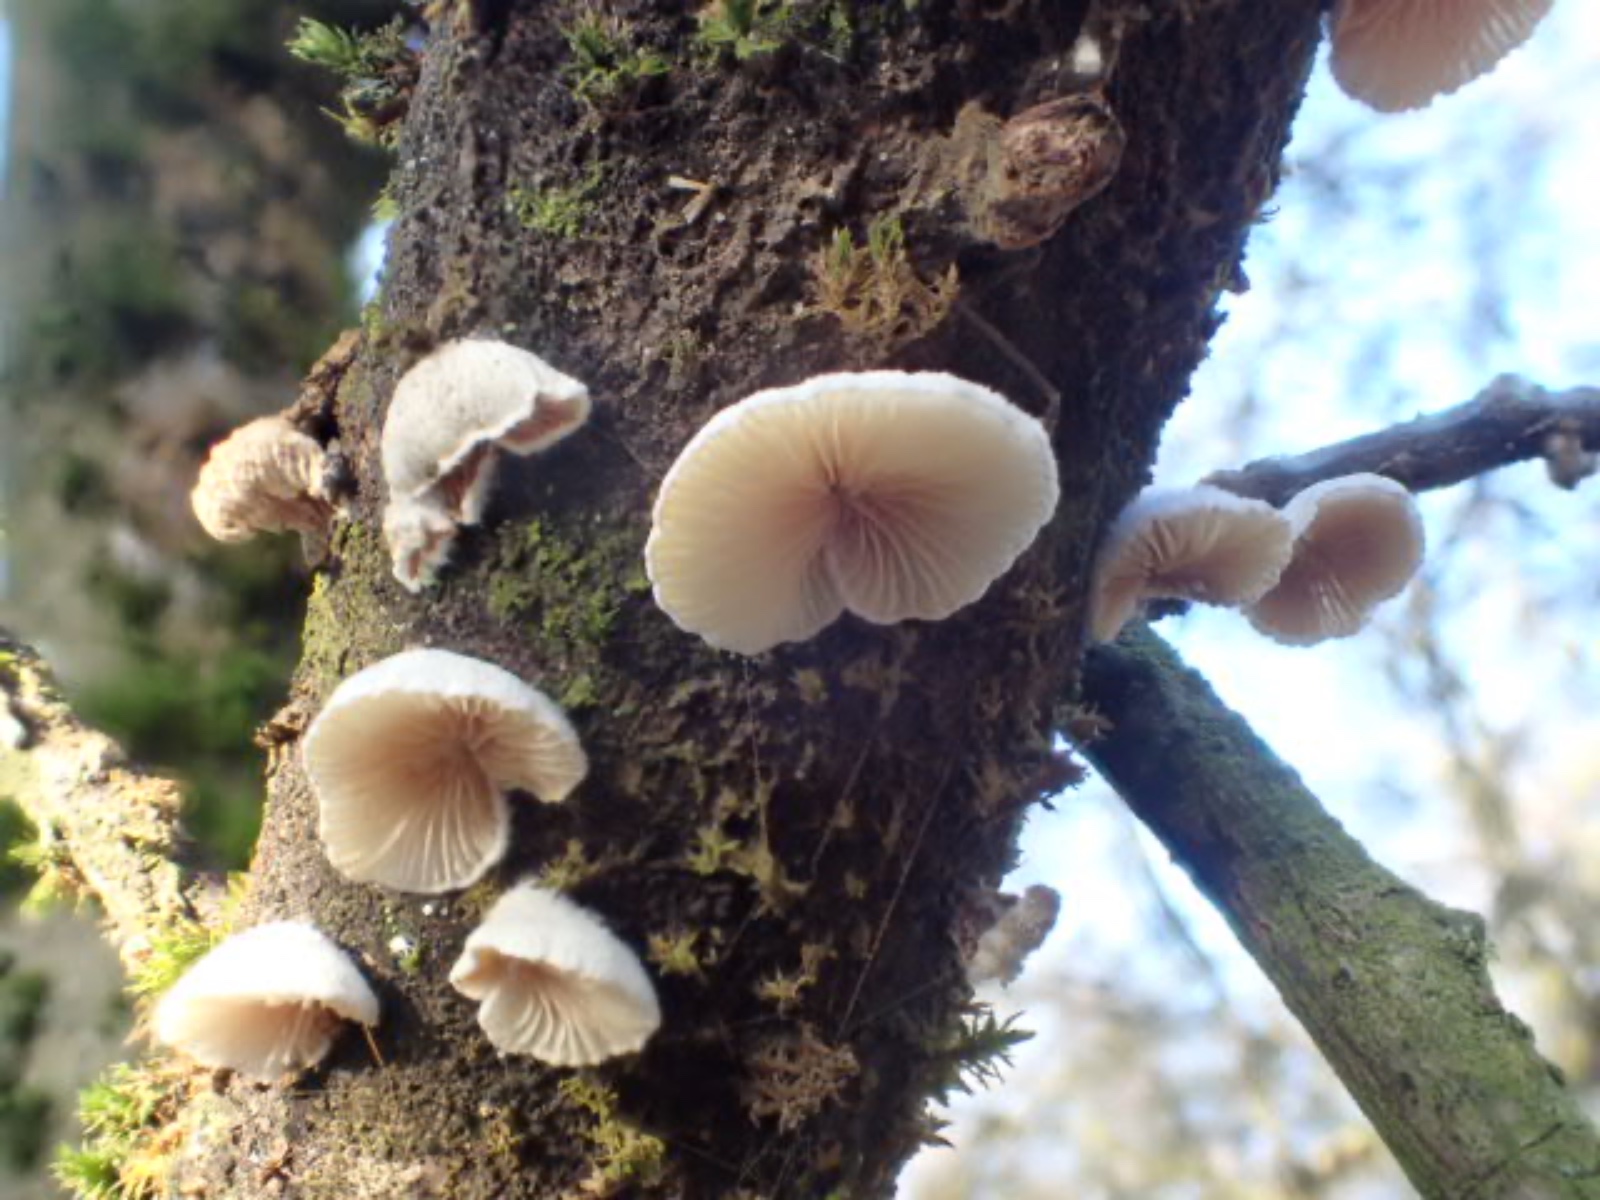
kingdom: Fungi
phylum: Basidiomycota
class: Agaricomycetes
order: Agaricales
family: Crepidotaceae
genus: Crepidotus
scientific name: Crepidotus
